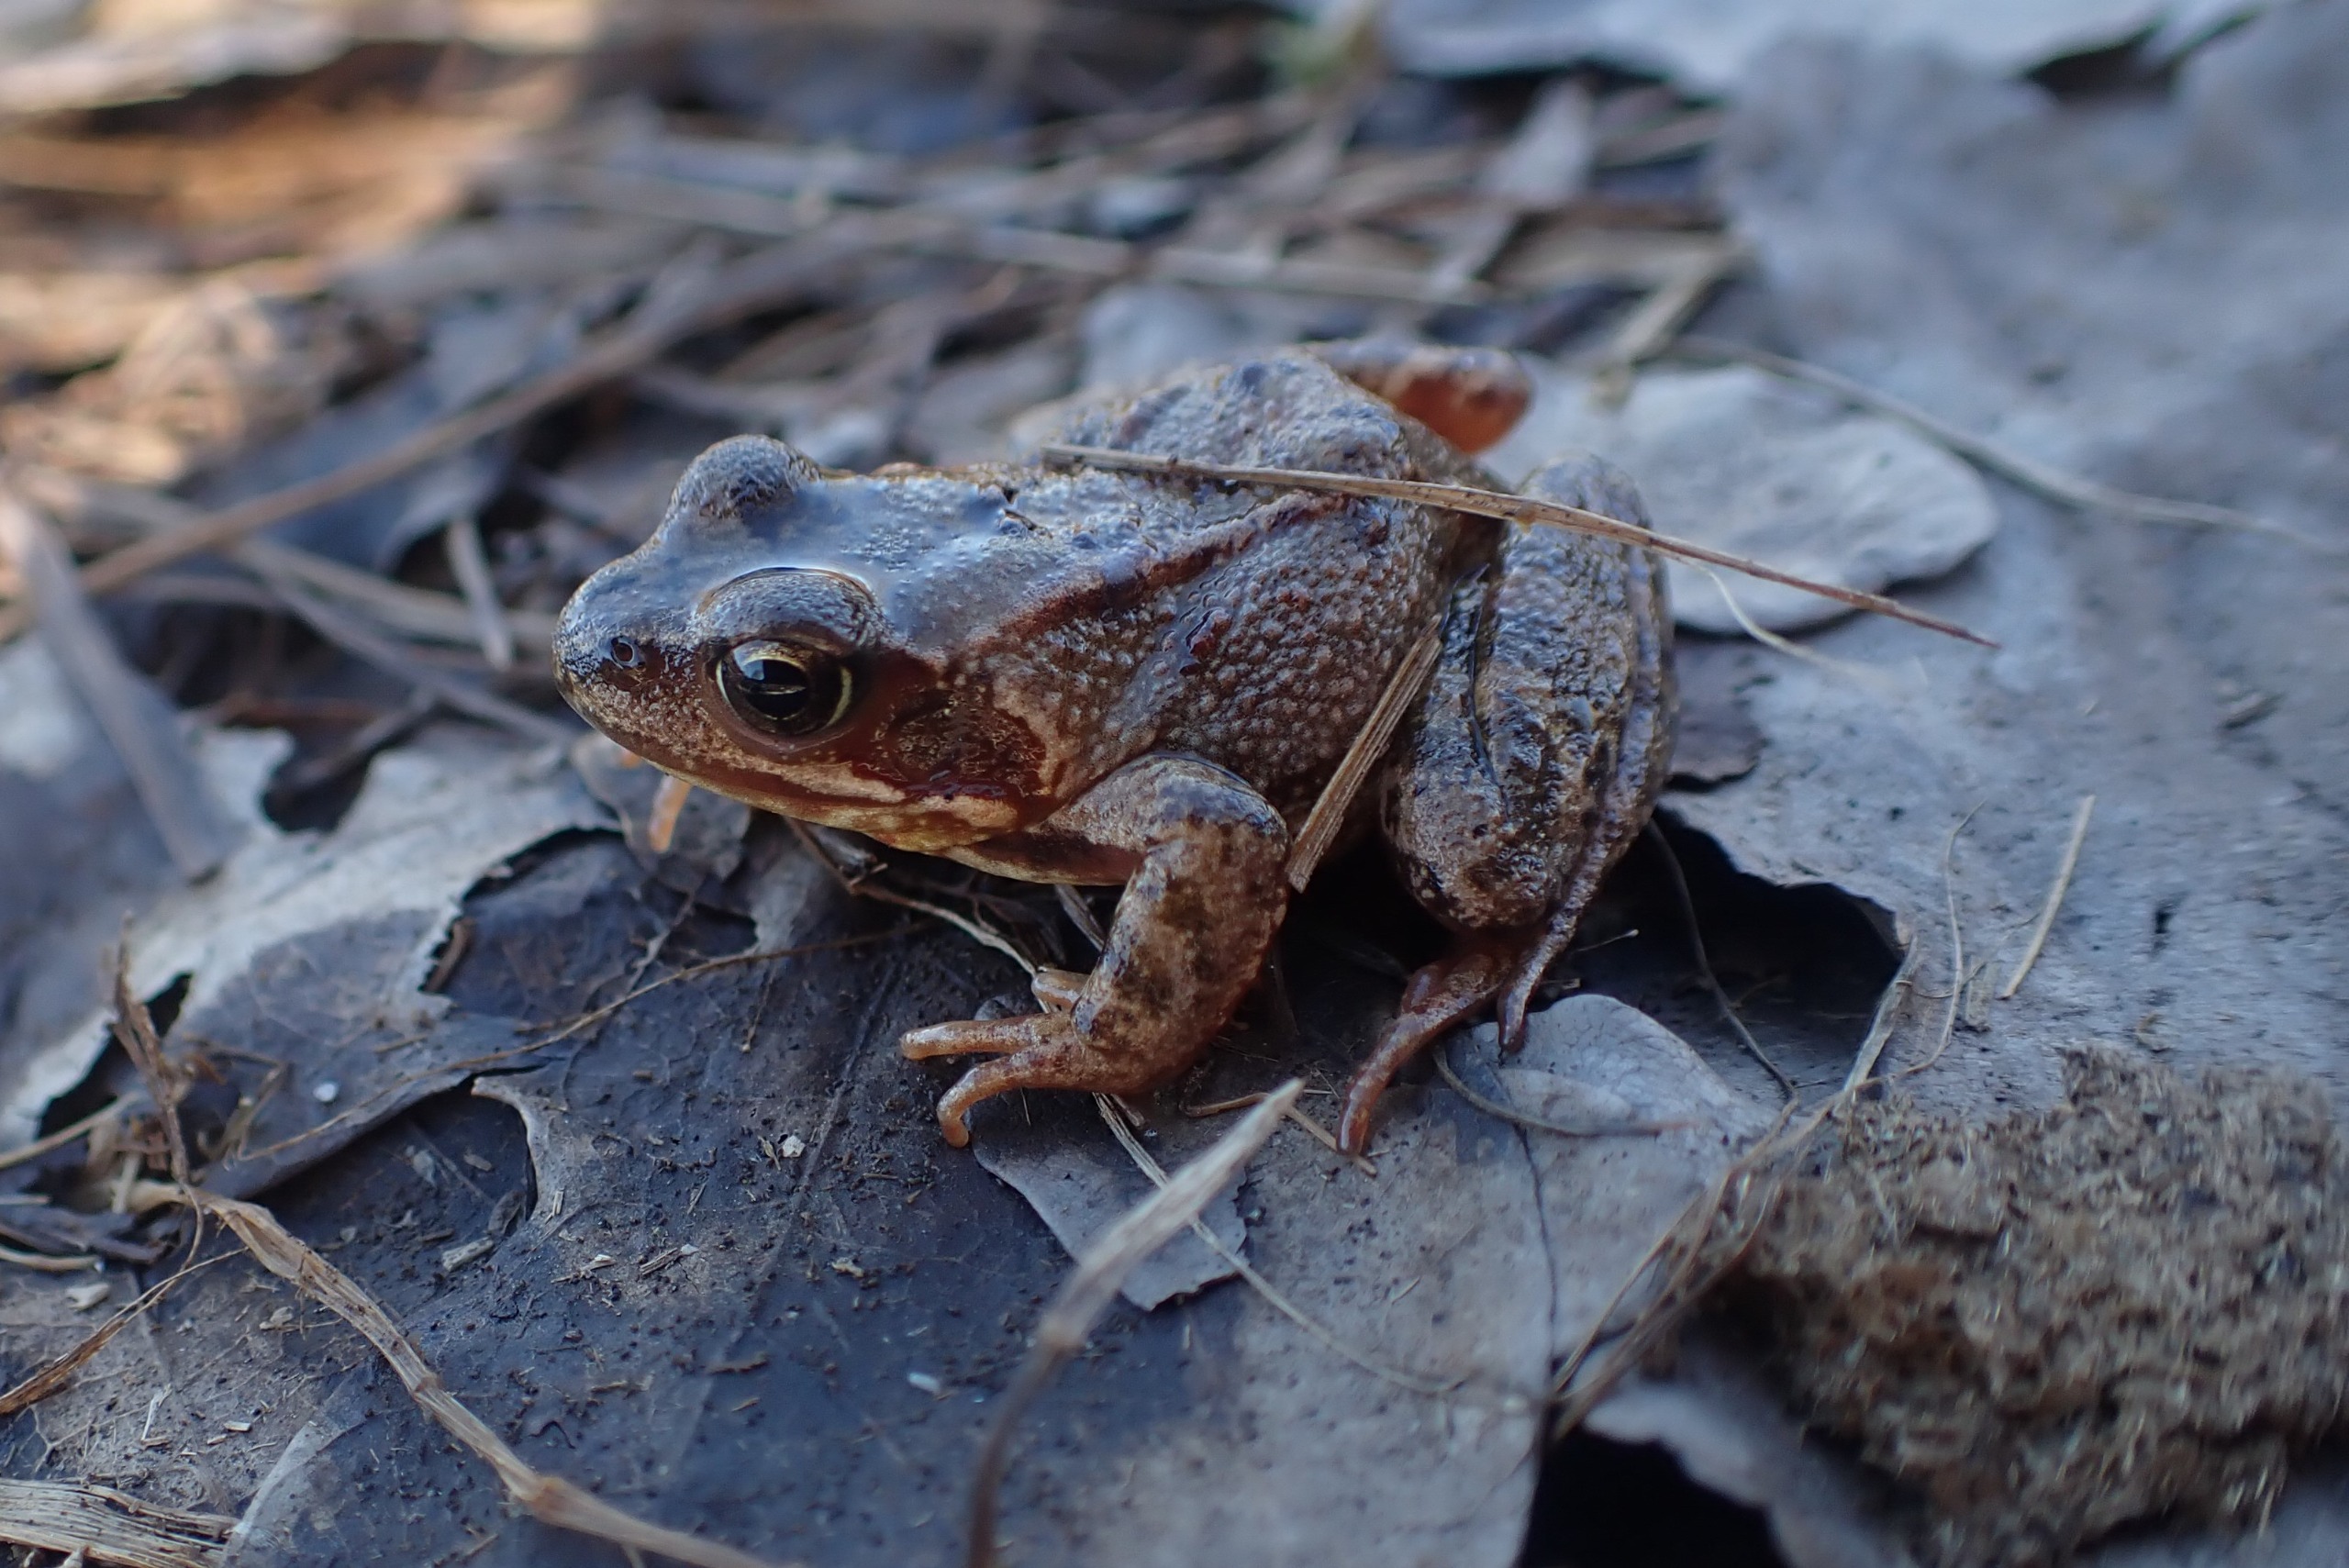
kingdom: Animalia
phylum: Chordata
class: Amphibia
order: Anura
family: Ranidae
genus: Rana
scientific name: Rana temporaria
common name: Butsnudet frø
